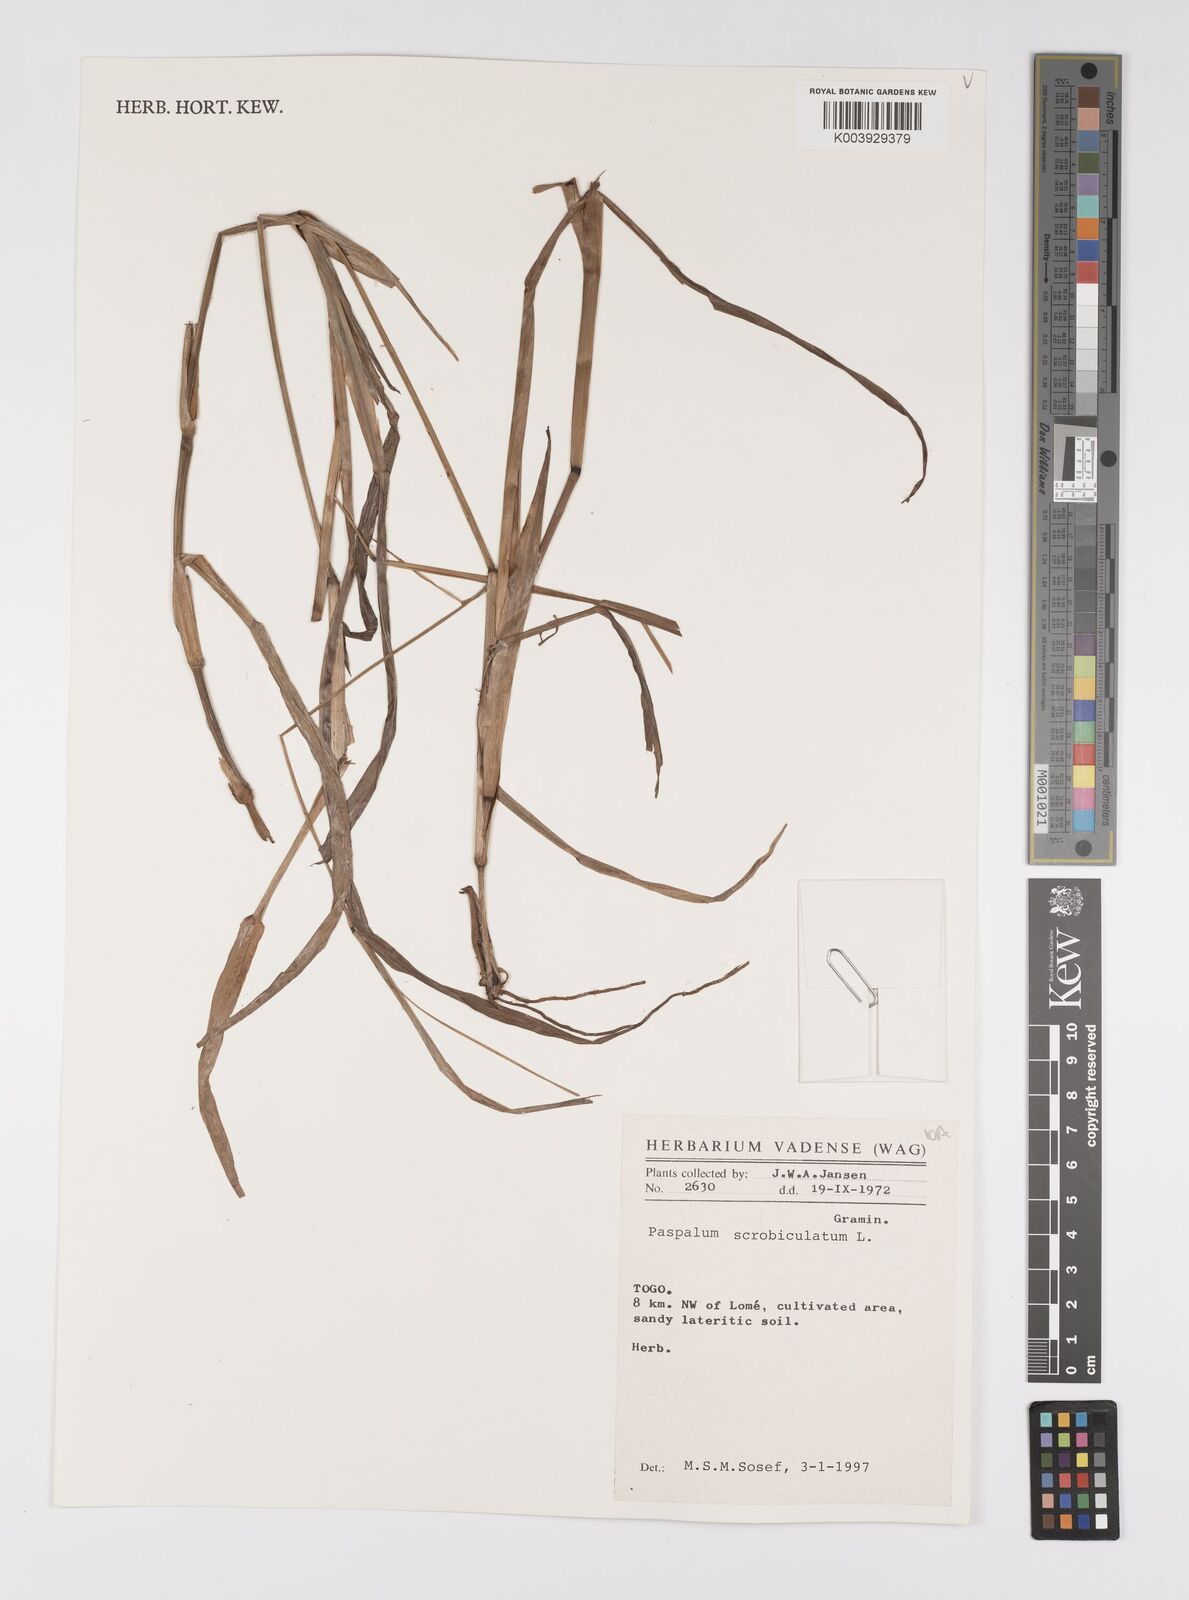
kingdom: Plantae
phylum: Tracheophyta
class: Liliopsida
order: Poales
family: Poaceae
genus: Paspalum
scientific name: Paspalum scrobiculatum
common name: Kodo millet
